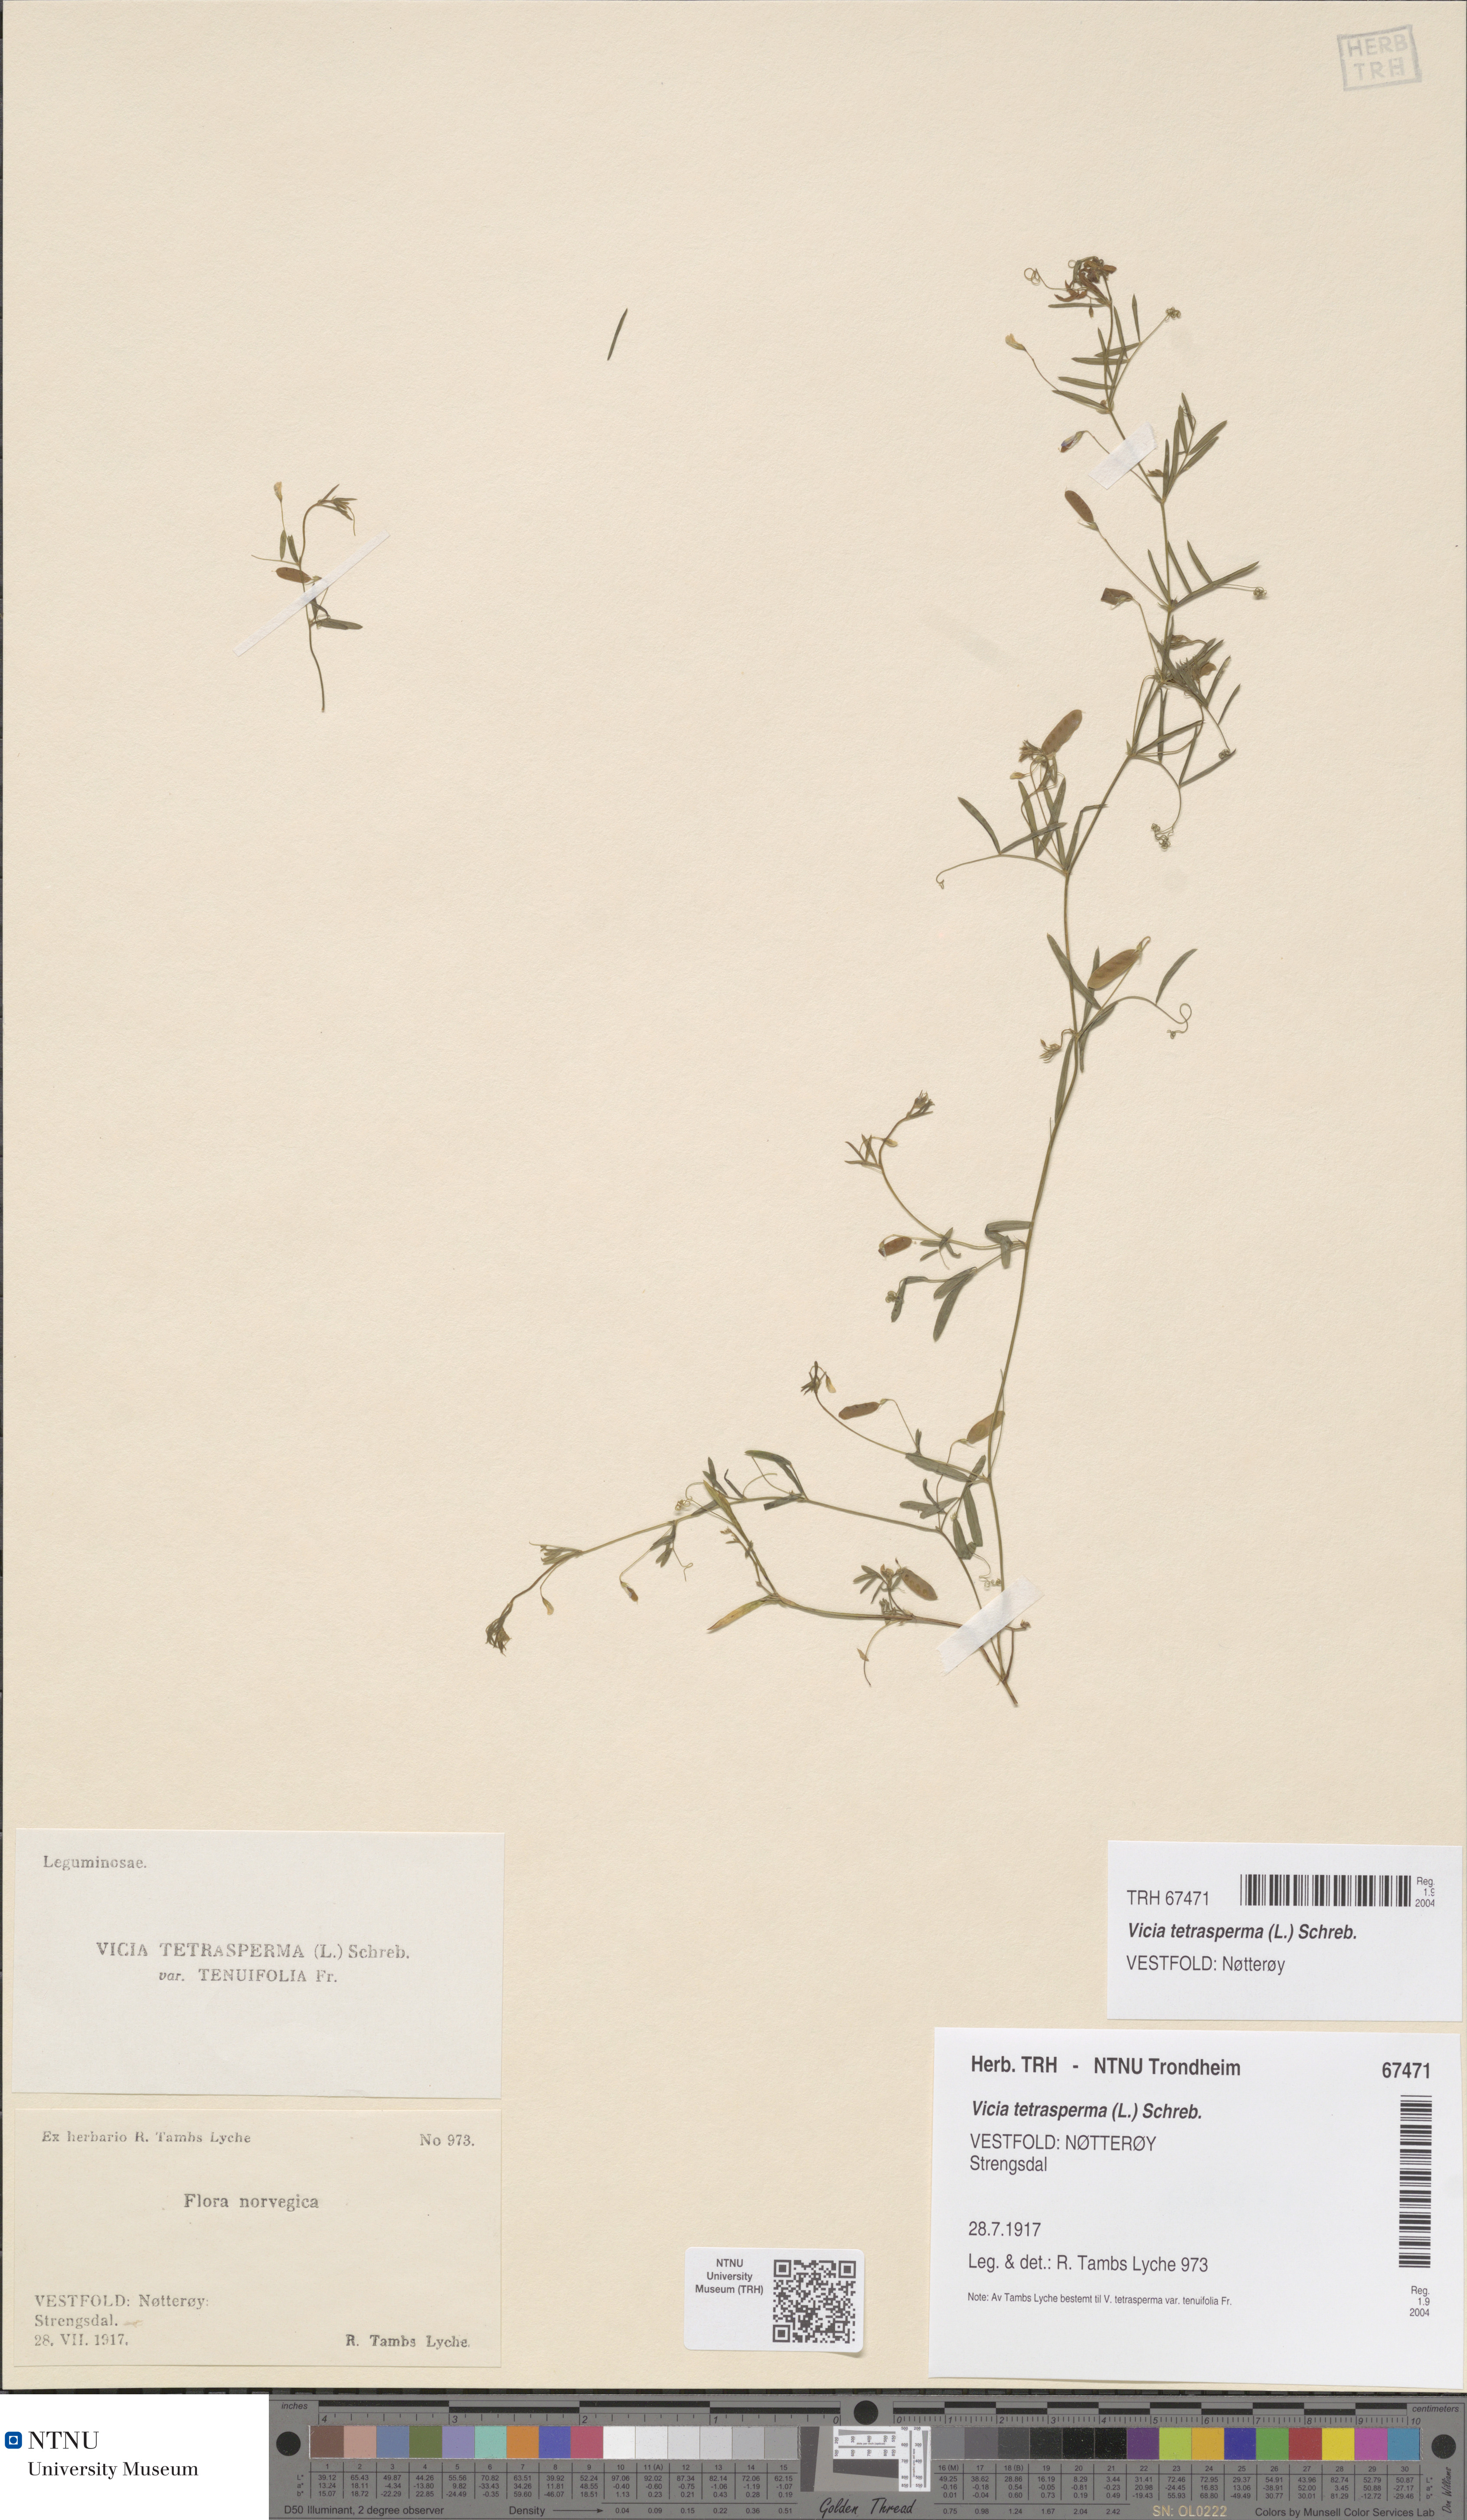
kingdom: Plantae
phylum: Tracheophyta
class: Magnoliopsida
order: Fabales
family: Fabaceae
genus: Vicia
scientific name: Vicia tetrasperma
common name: Smooth tare
